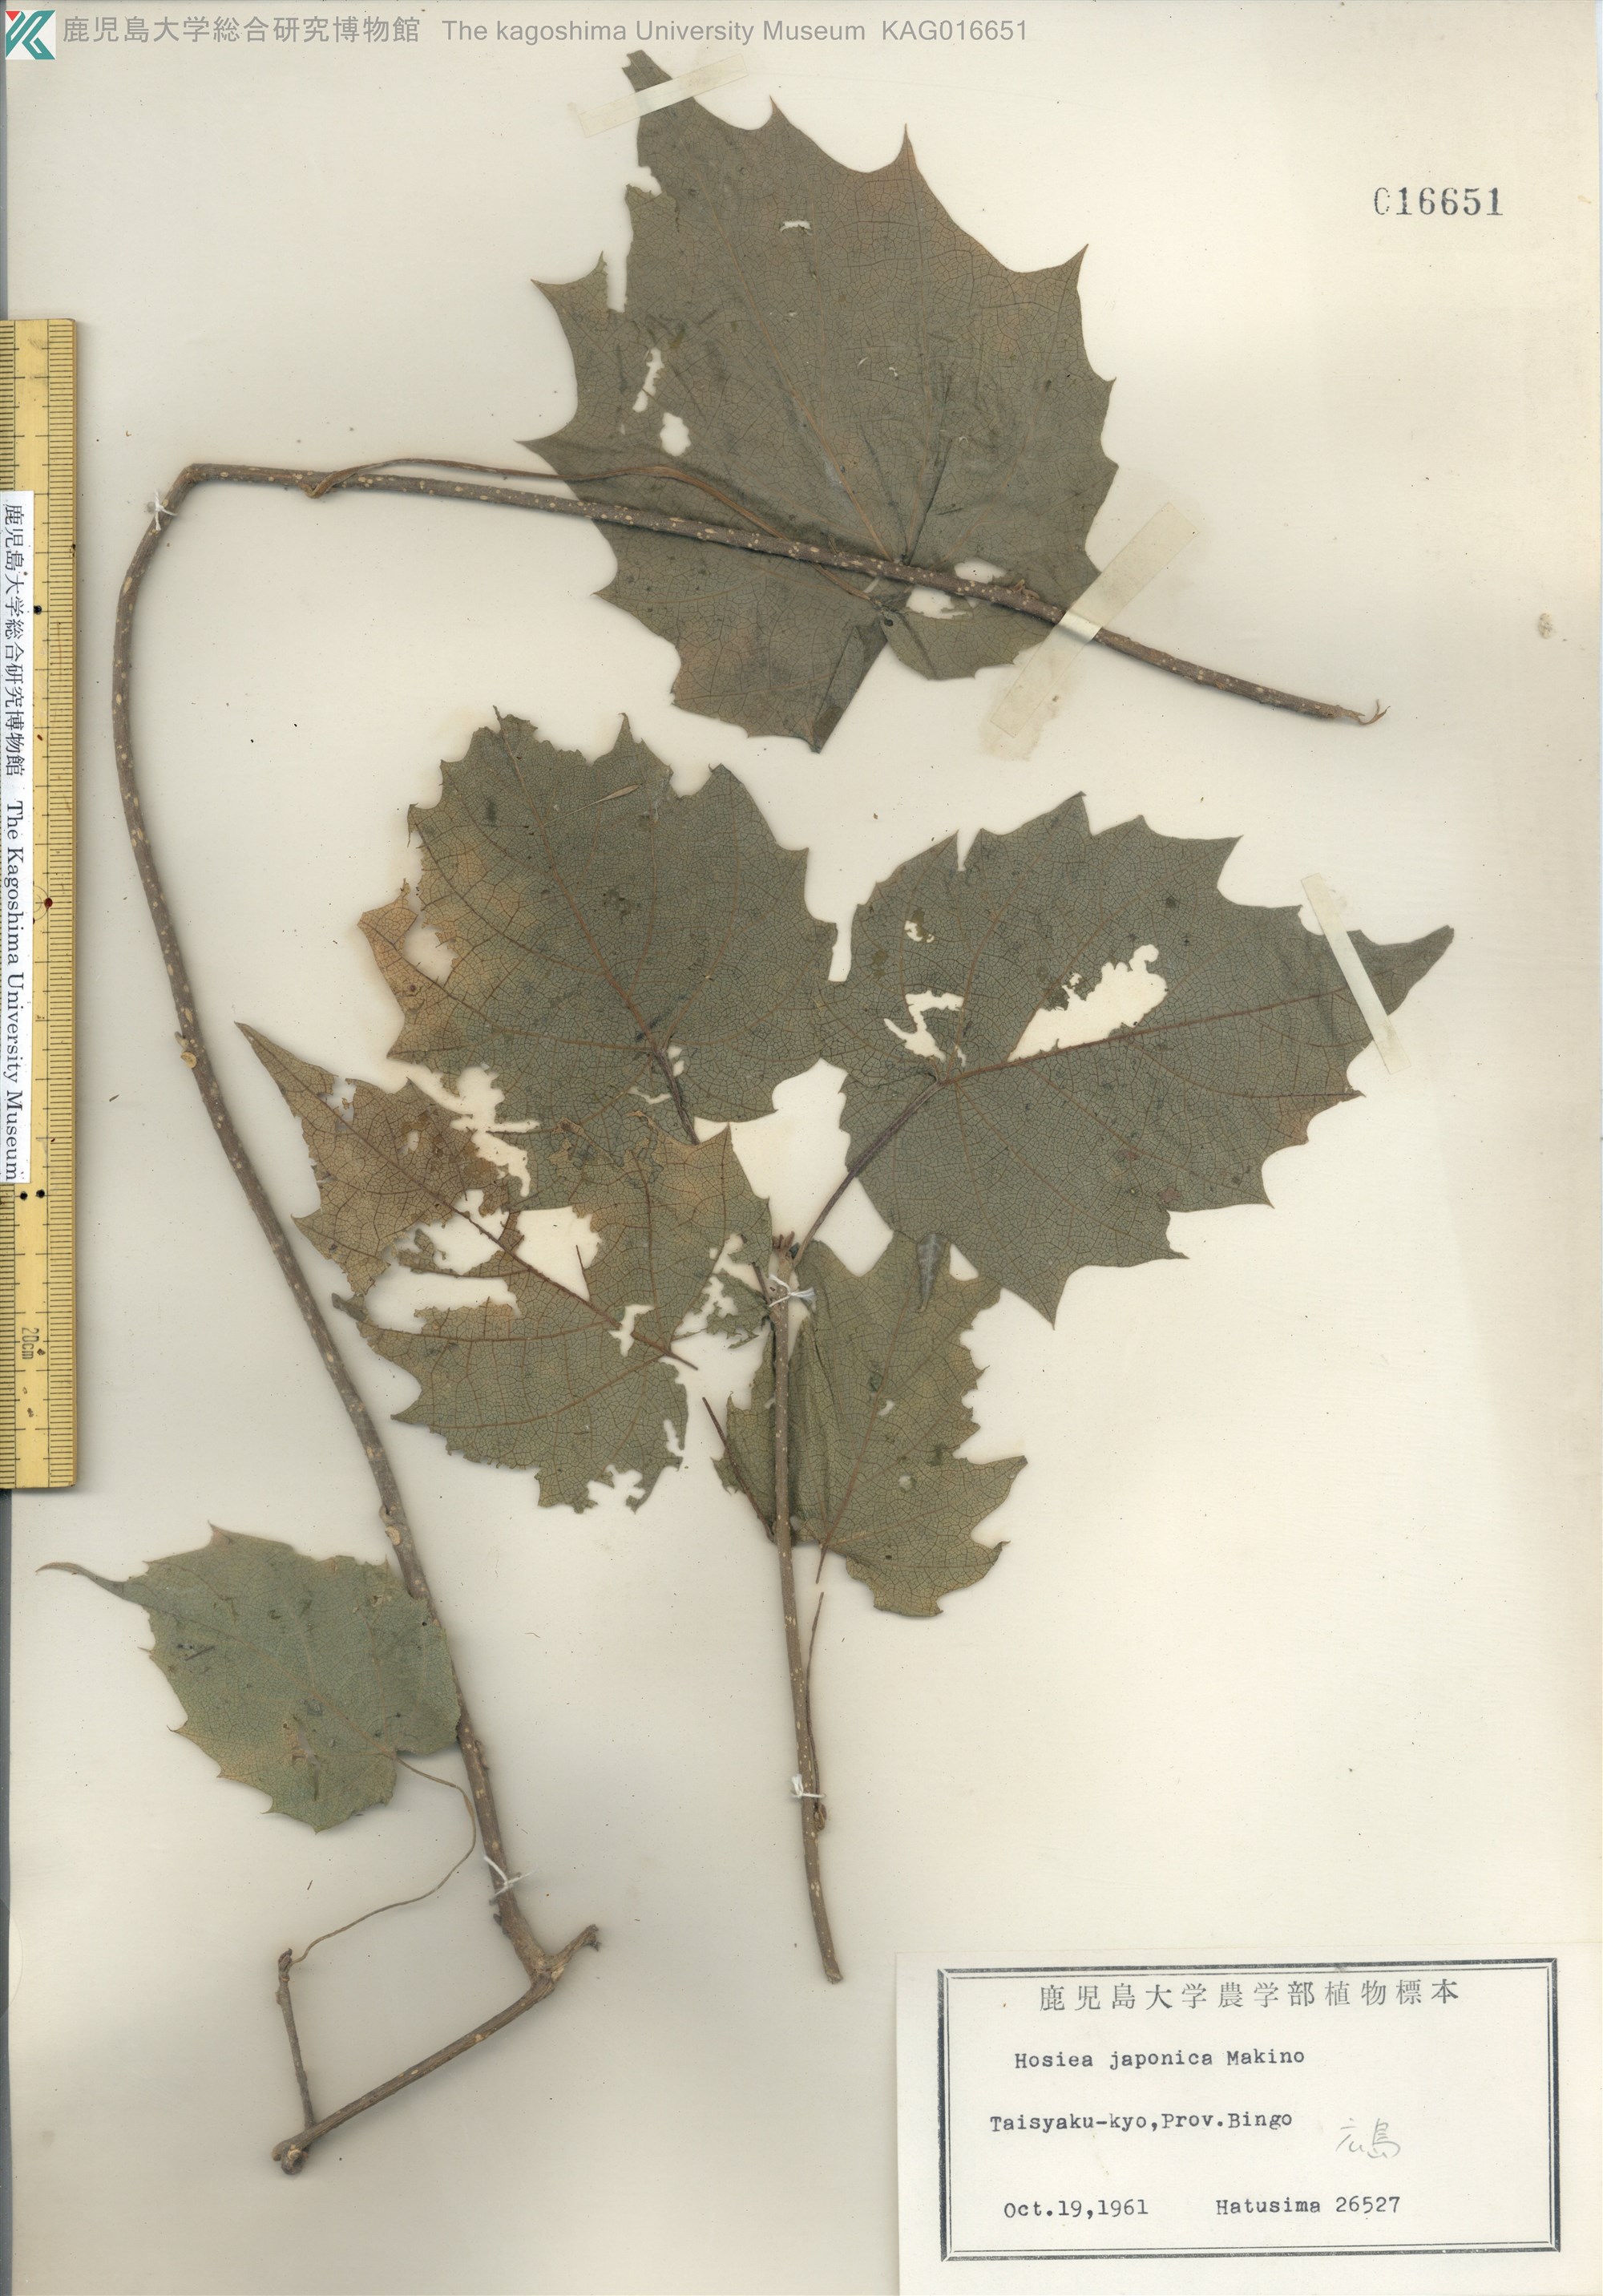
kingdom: Plantae
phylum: Tracheophyta
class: Magnoliopsida
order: Icacinales
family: Icacinaceae
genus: Hosiea
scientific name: Hosiea japonica
